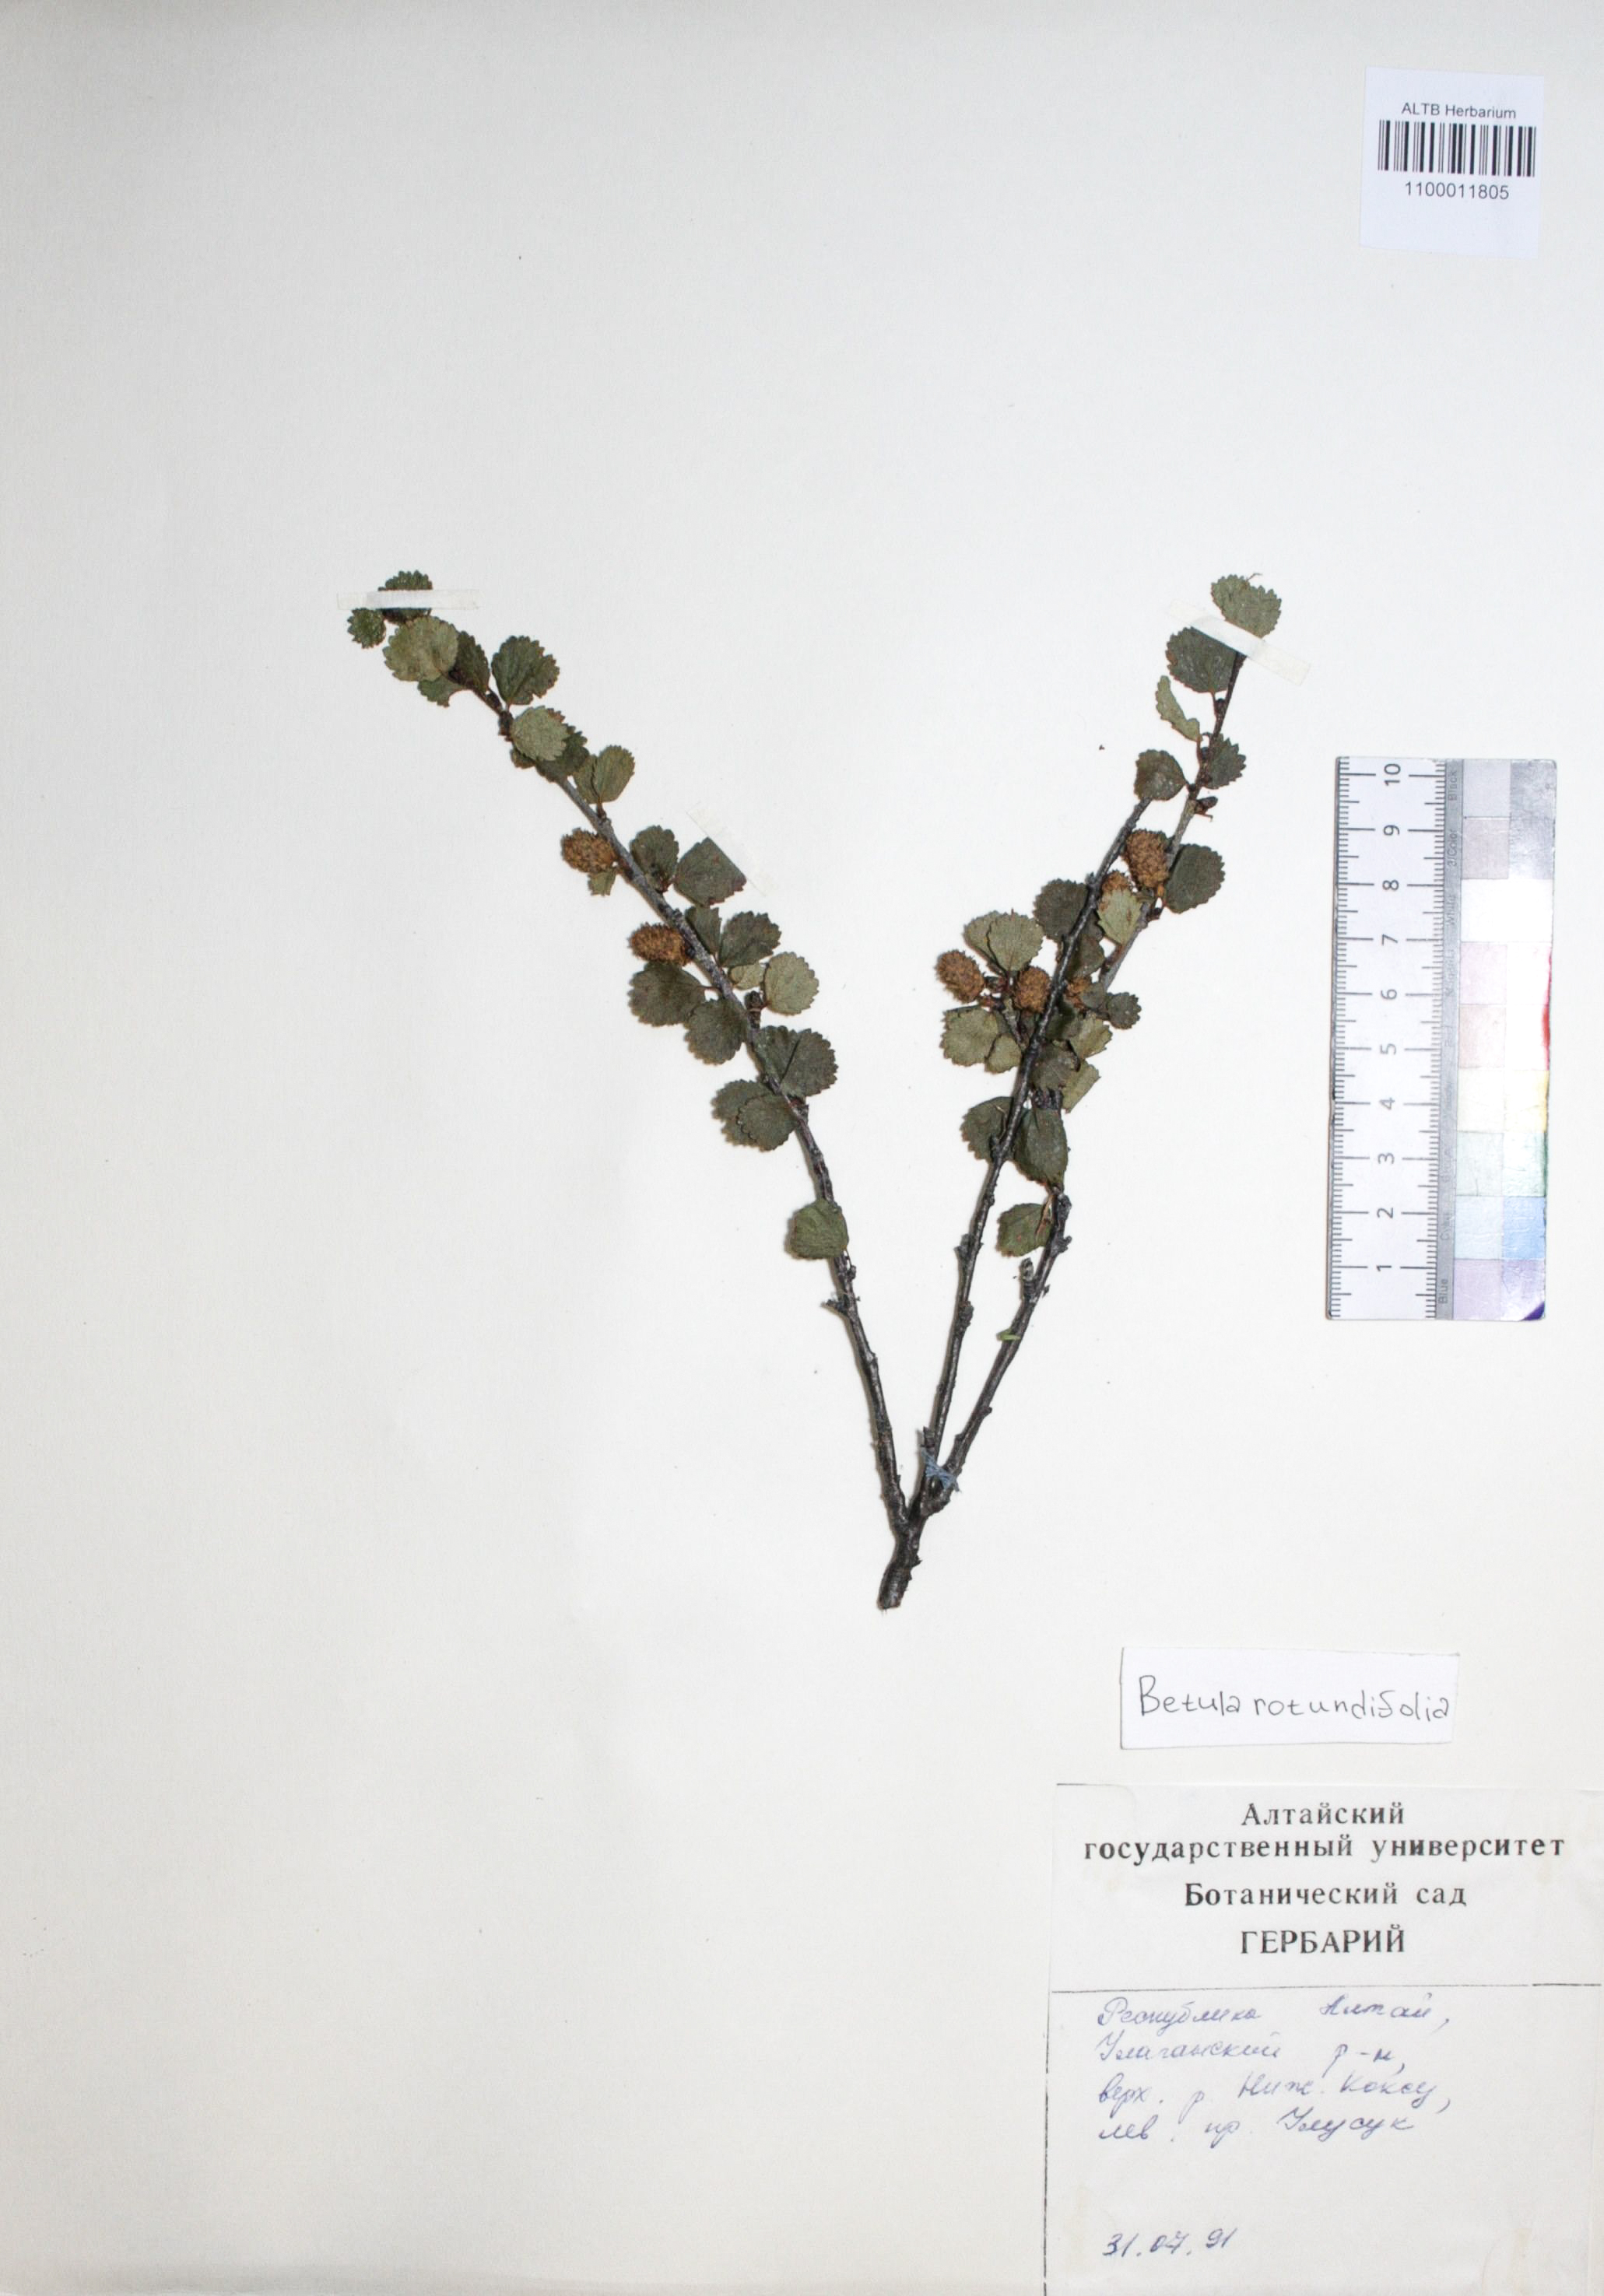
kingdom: Plantae
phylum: Tracheophyta
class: Magnoliopsida
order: Fagales
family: Betulaceae
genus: Betula
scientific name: Betula glandulosa
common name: Dwarf birch
